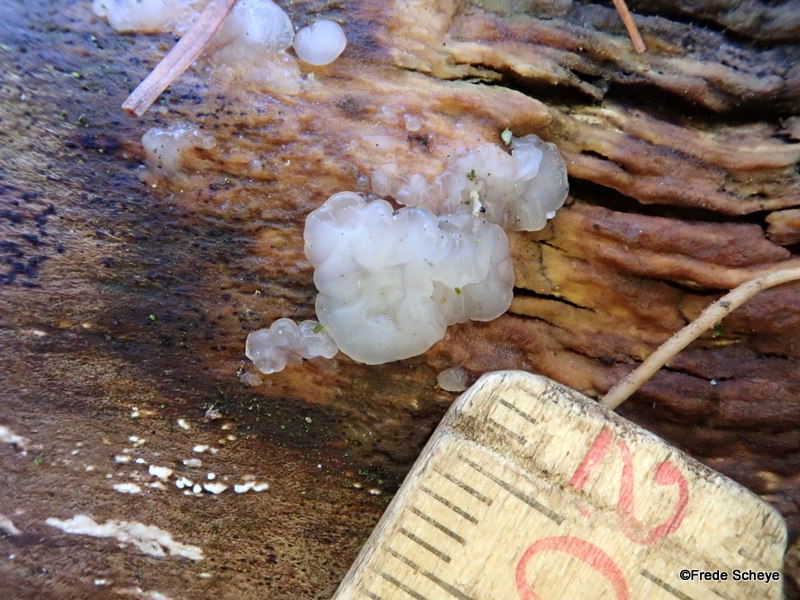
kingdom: Fungi
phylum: Basidiomycota
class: Agaricomycetes
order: Auriculariales
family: Auriculariaceae
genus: Exidia
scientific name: Exidia thuretiana
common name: hvidlig bævretop
